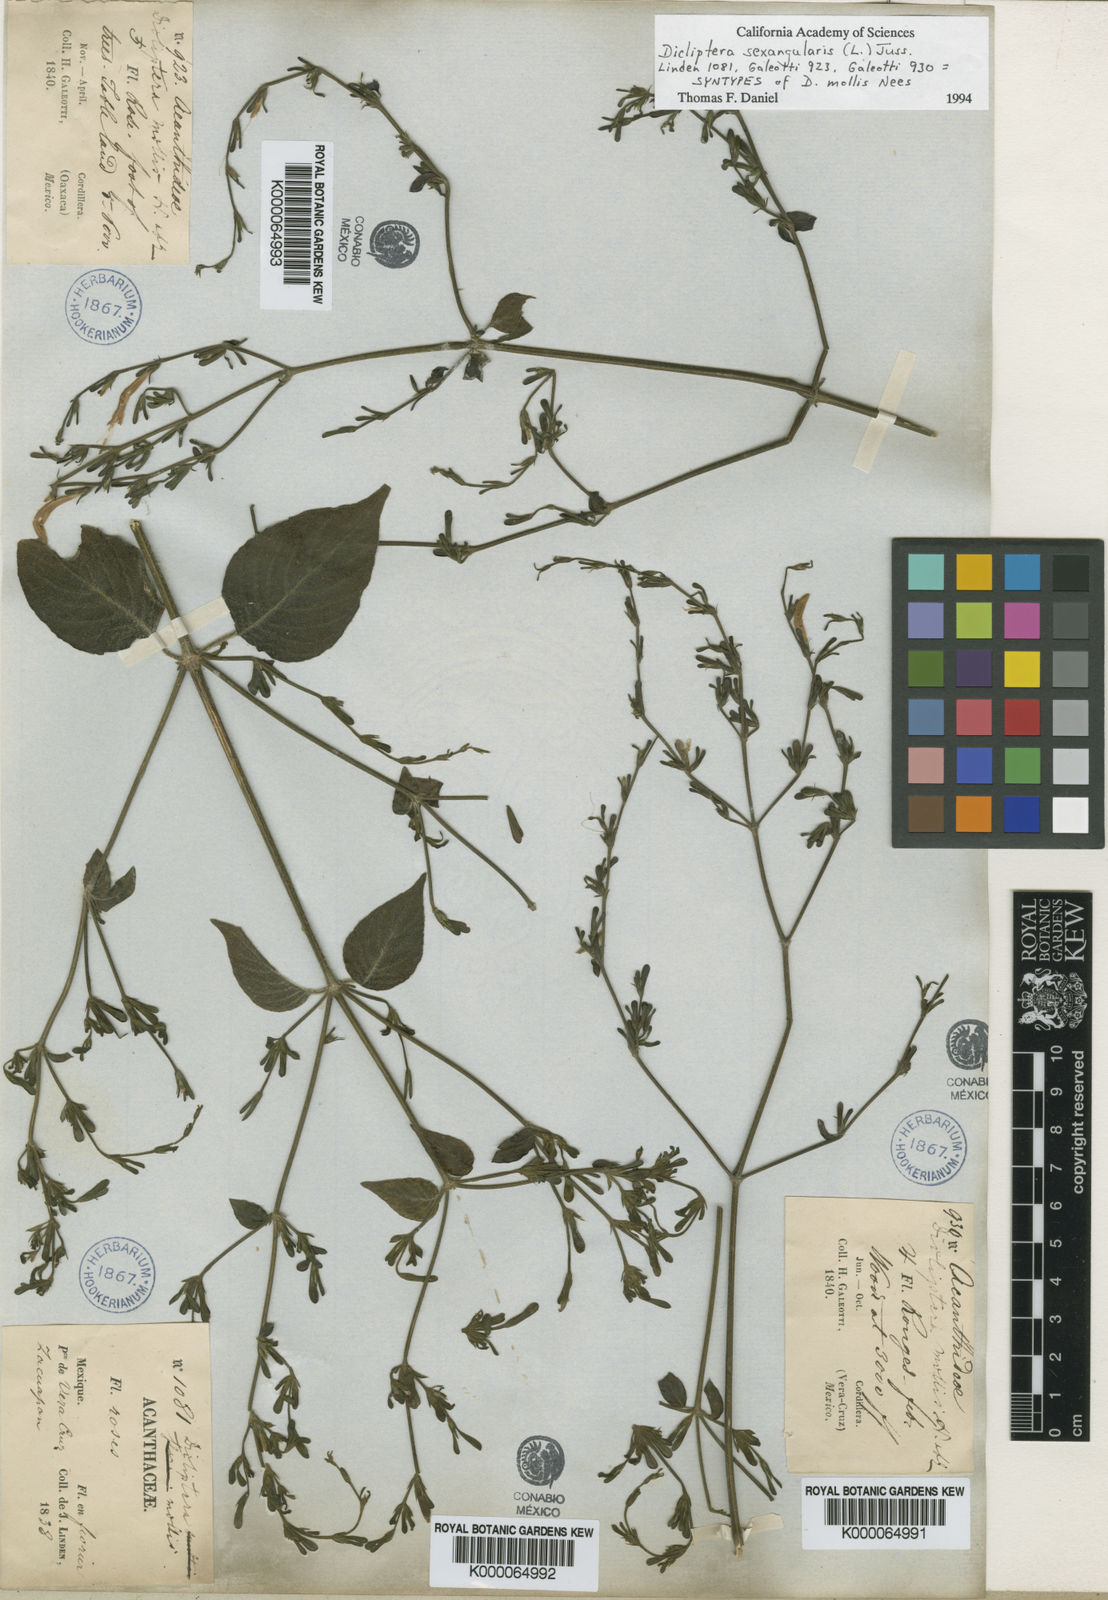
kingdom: Plantae
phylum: Tracheophyta
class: Magnoliopsida
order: Lamiales
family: Acanthaceae
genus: Dicliptera
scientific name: Dicliptera sexangularis
